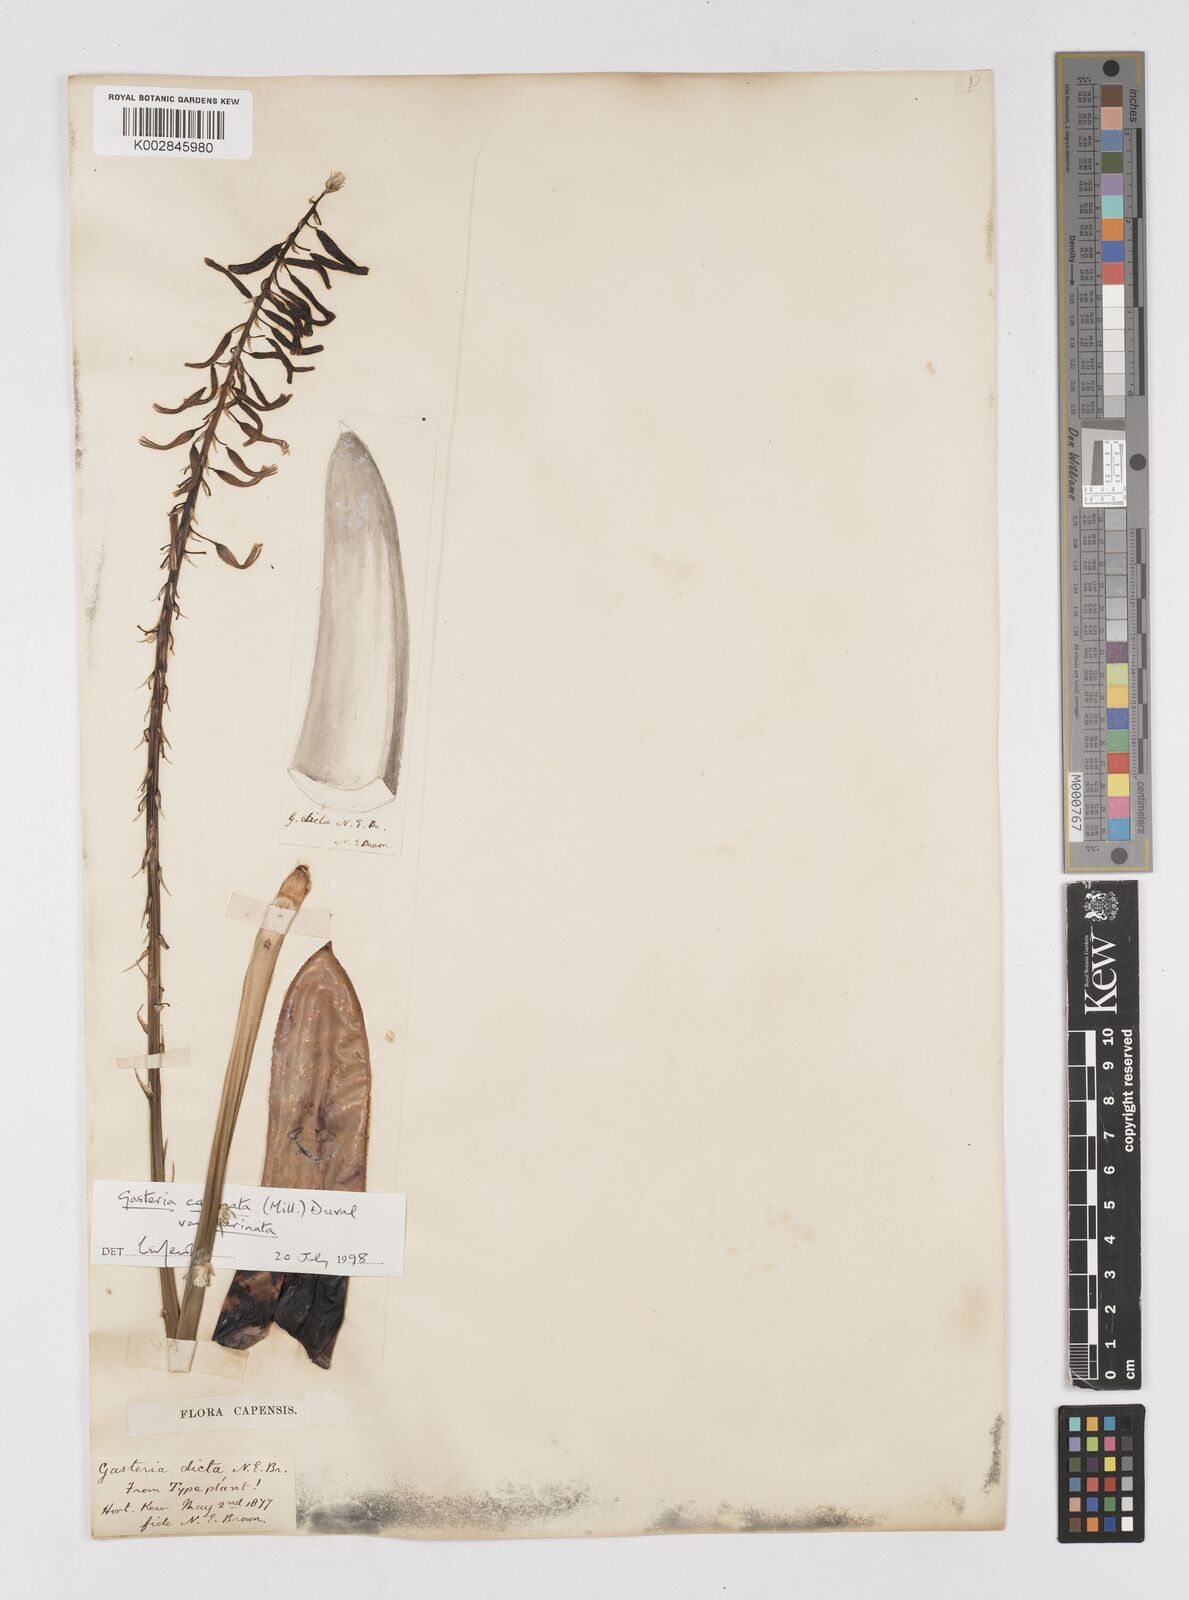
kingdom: Plantae
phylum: Tracheophyta
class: Liliopsida
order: Asparagales
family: Asphodelaceae
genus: Gasteria
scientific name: Gasteria dicta
